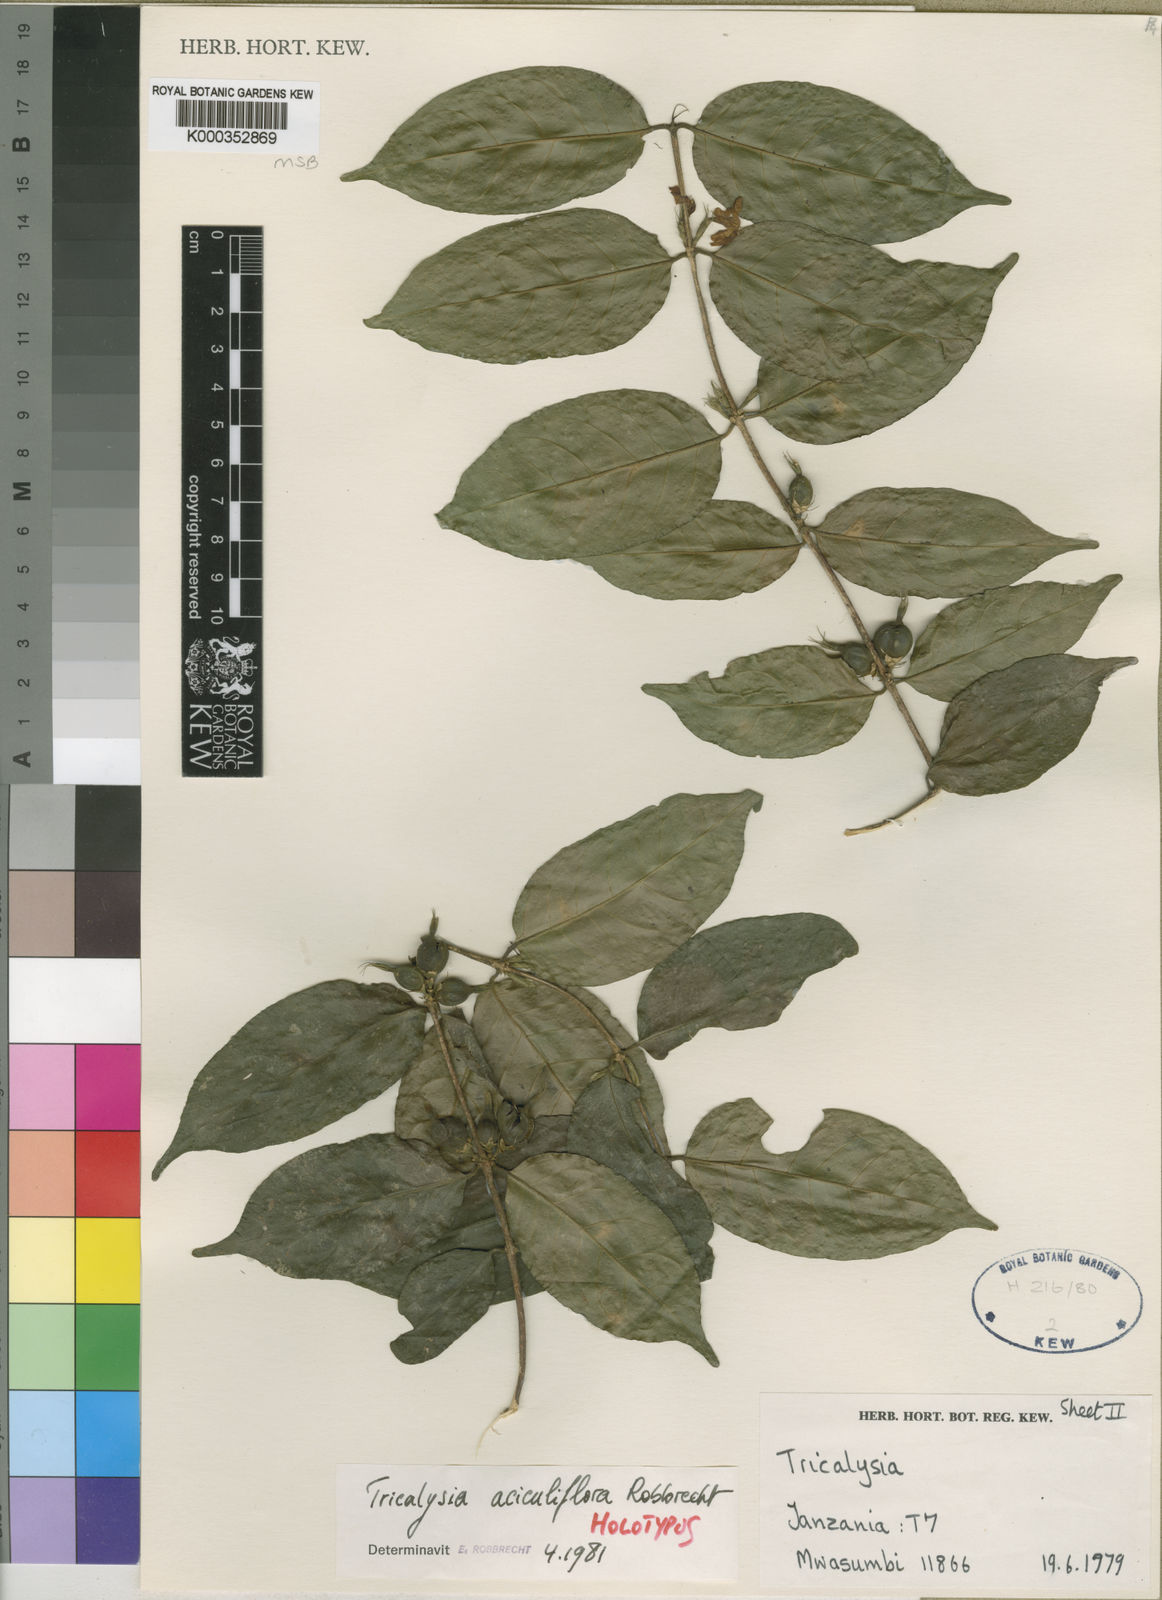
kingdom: Plantae
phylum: Tracheophyta
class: Magnoliopsida
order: Gentianales
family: Rubiaceae
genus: Tricalysia
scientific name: Tricalysia aciculiflora
